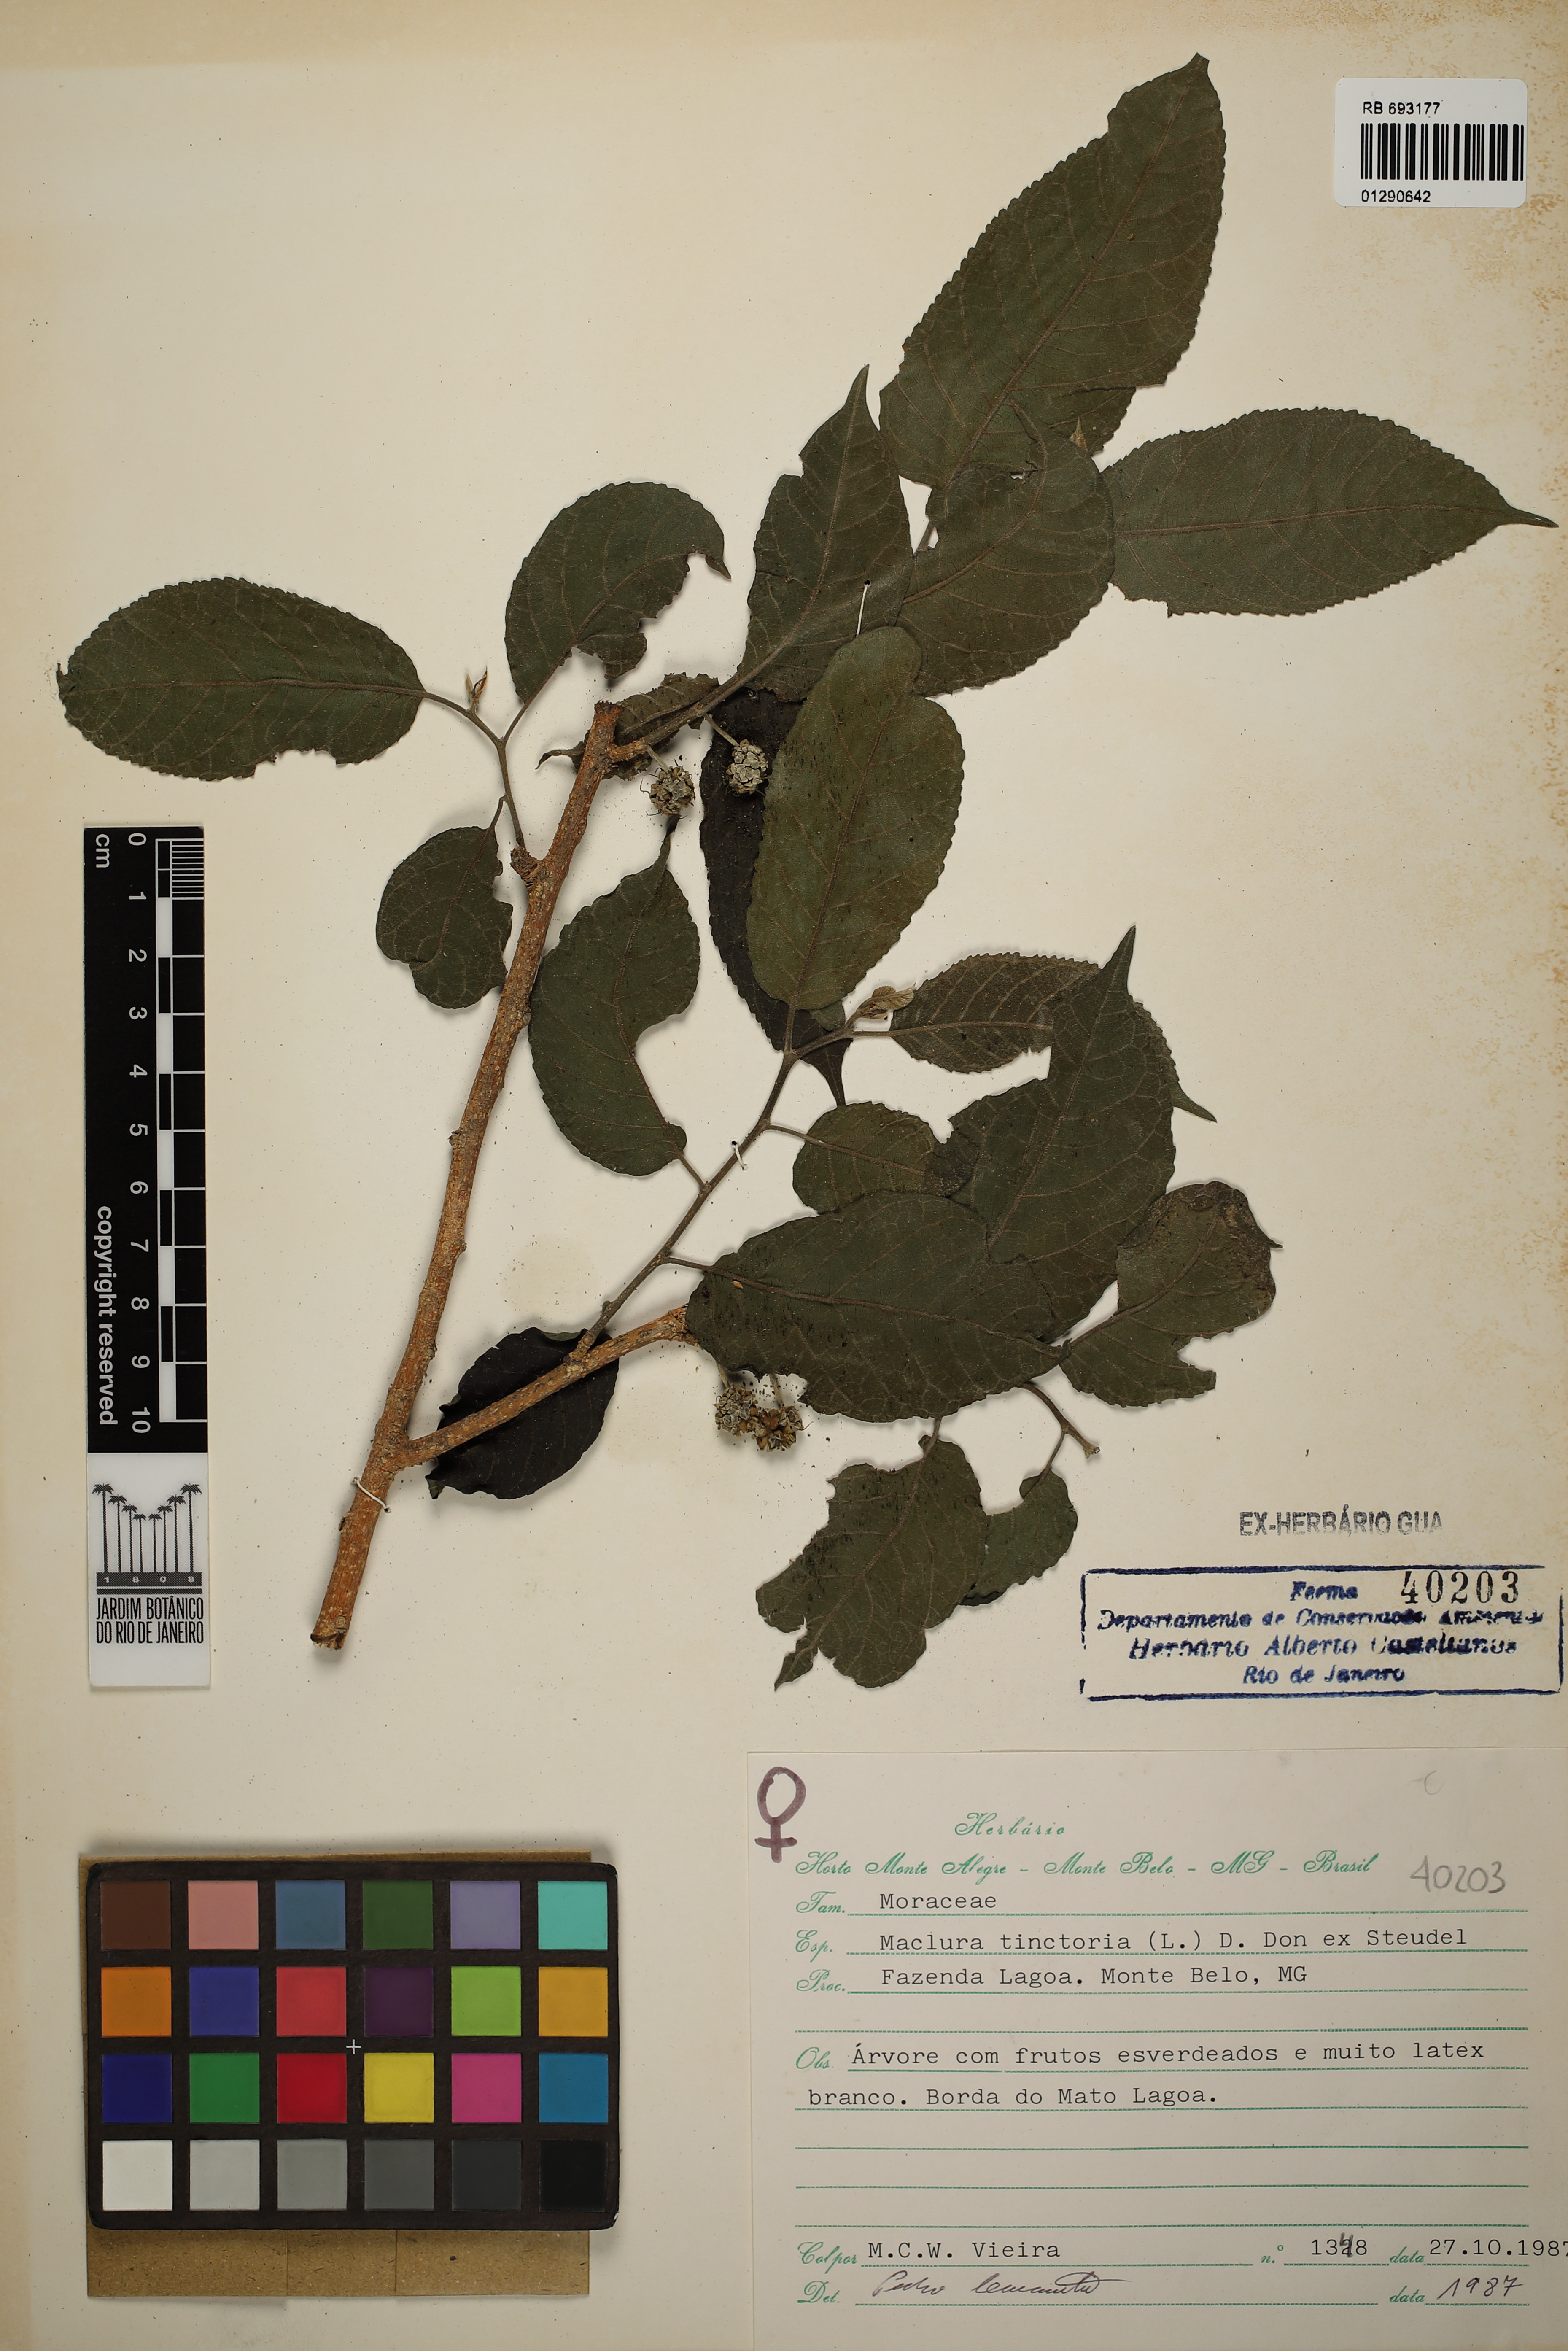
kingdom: Plantae
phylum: Tracheophyta
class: Magnoliopsida
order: Rosales
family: Moraceae
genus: Maclura
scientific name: Maclura tinctoria
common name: Old fustic
